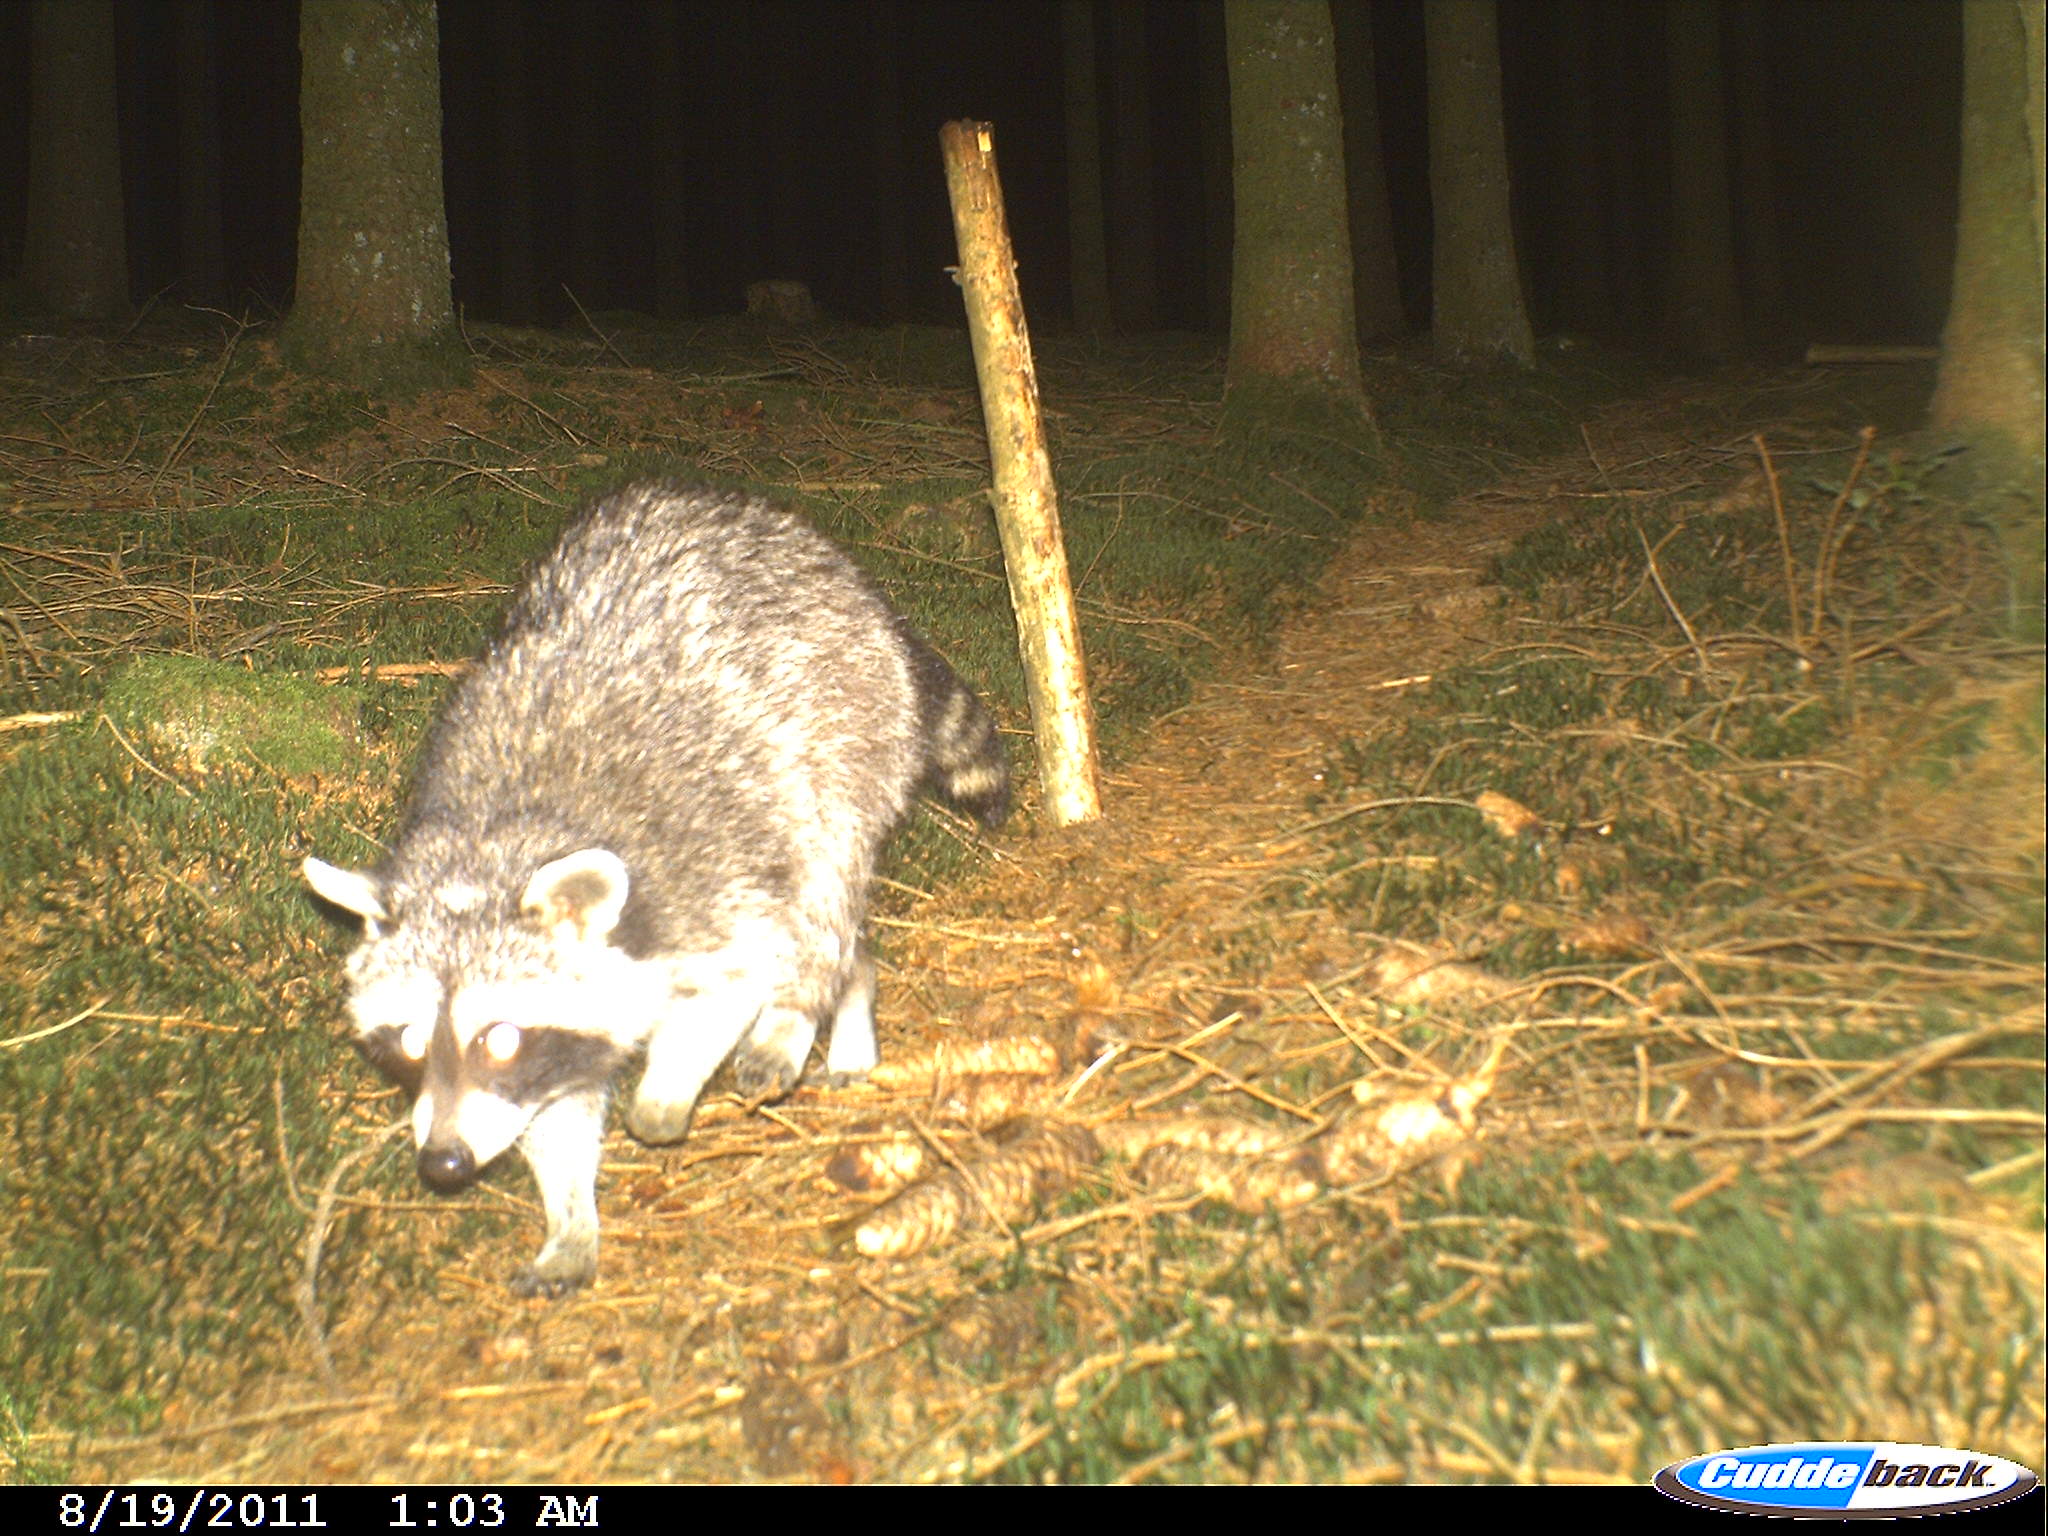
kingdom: Animalia
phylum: Chordata
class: Mammalia
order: Carnivora
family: Procyonidae
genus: Procyon
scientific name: Procyon lotor
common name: Raccoon
